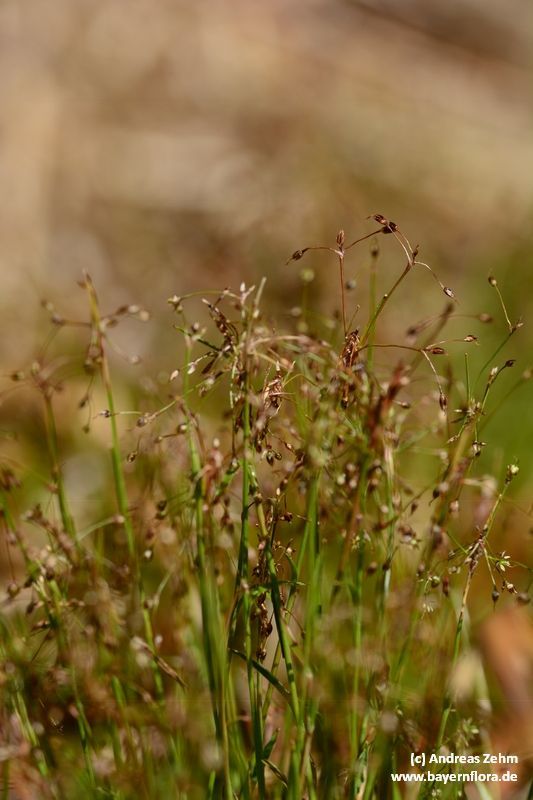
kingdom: Plantae
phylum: Tracheophyta
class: Liliopsida
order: Poales
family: Juncaceae
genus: Luzula
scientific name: Luzula pilosa
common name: Hairy wood-rush
